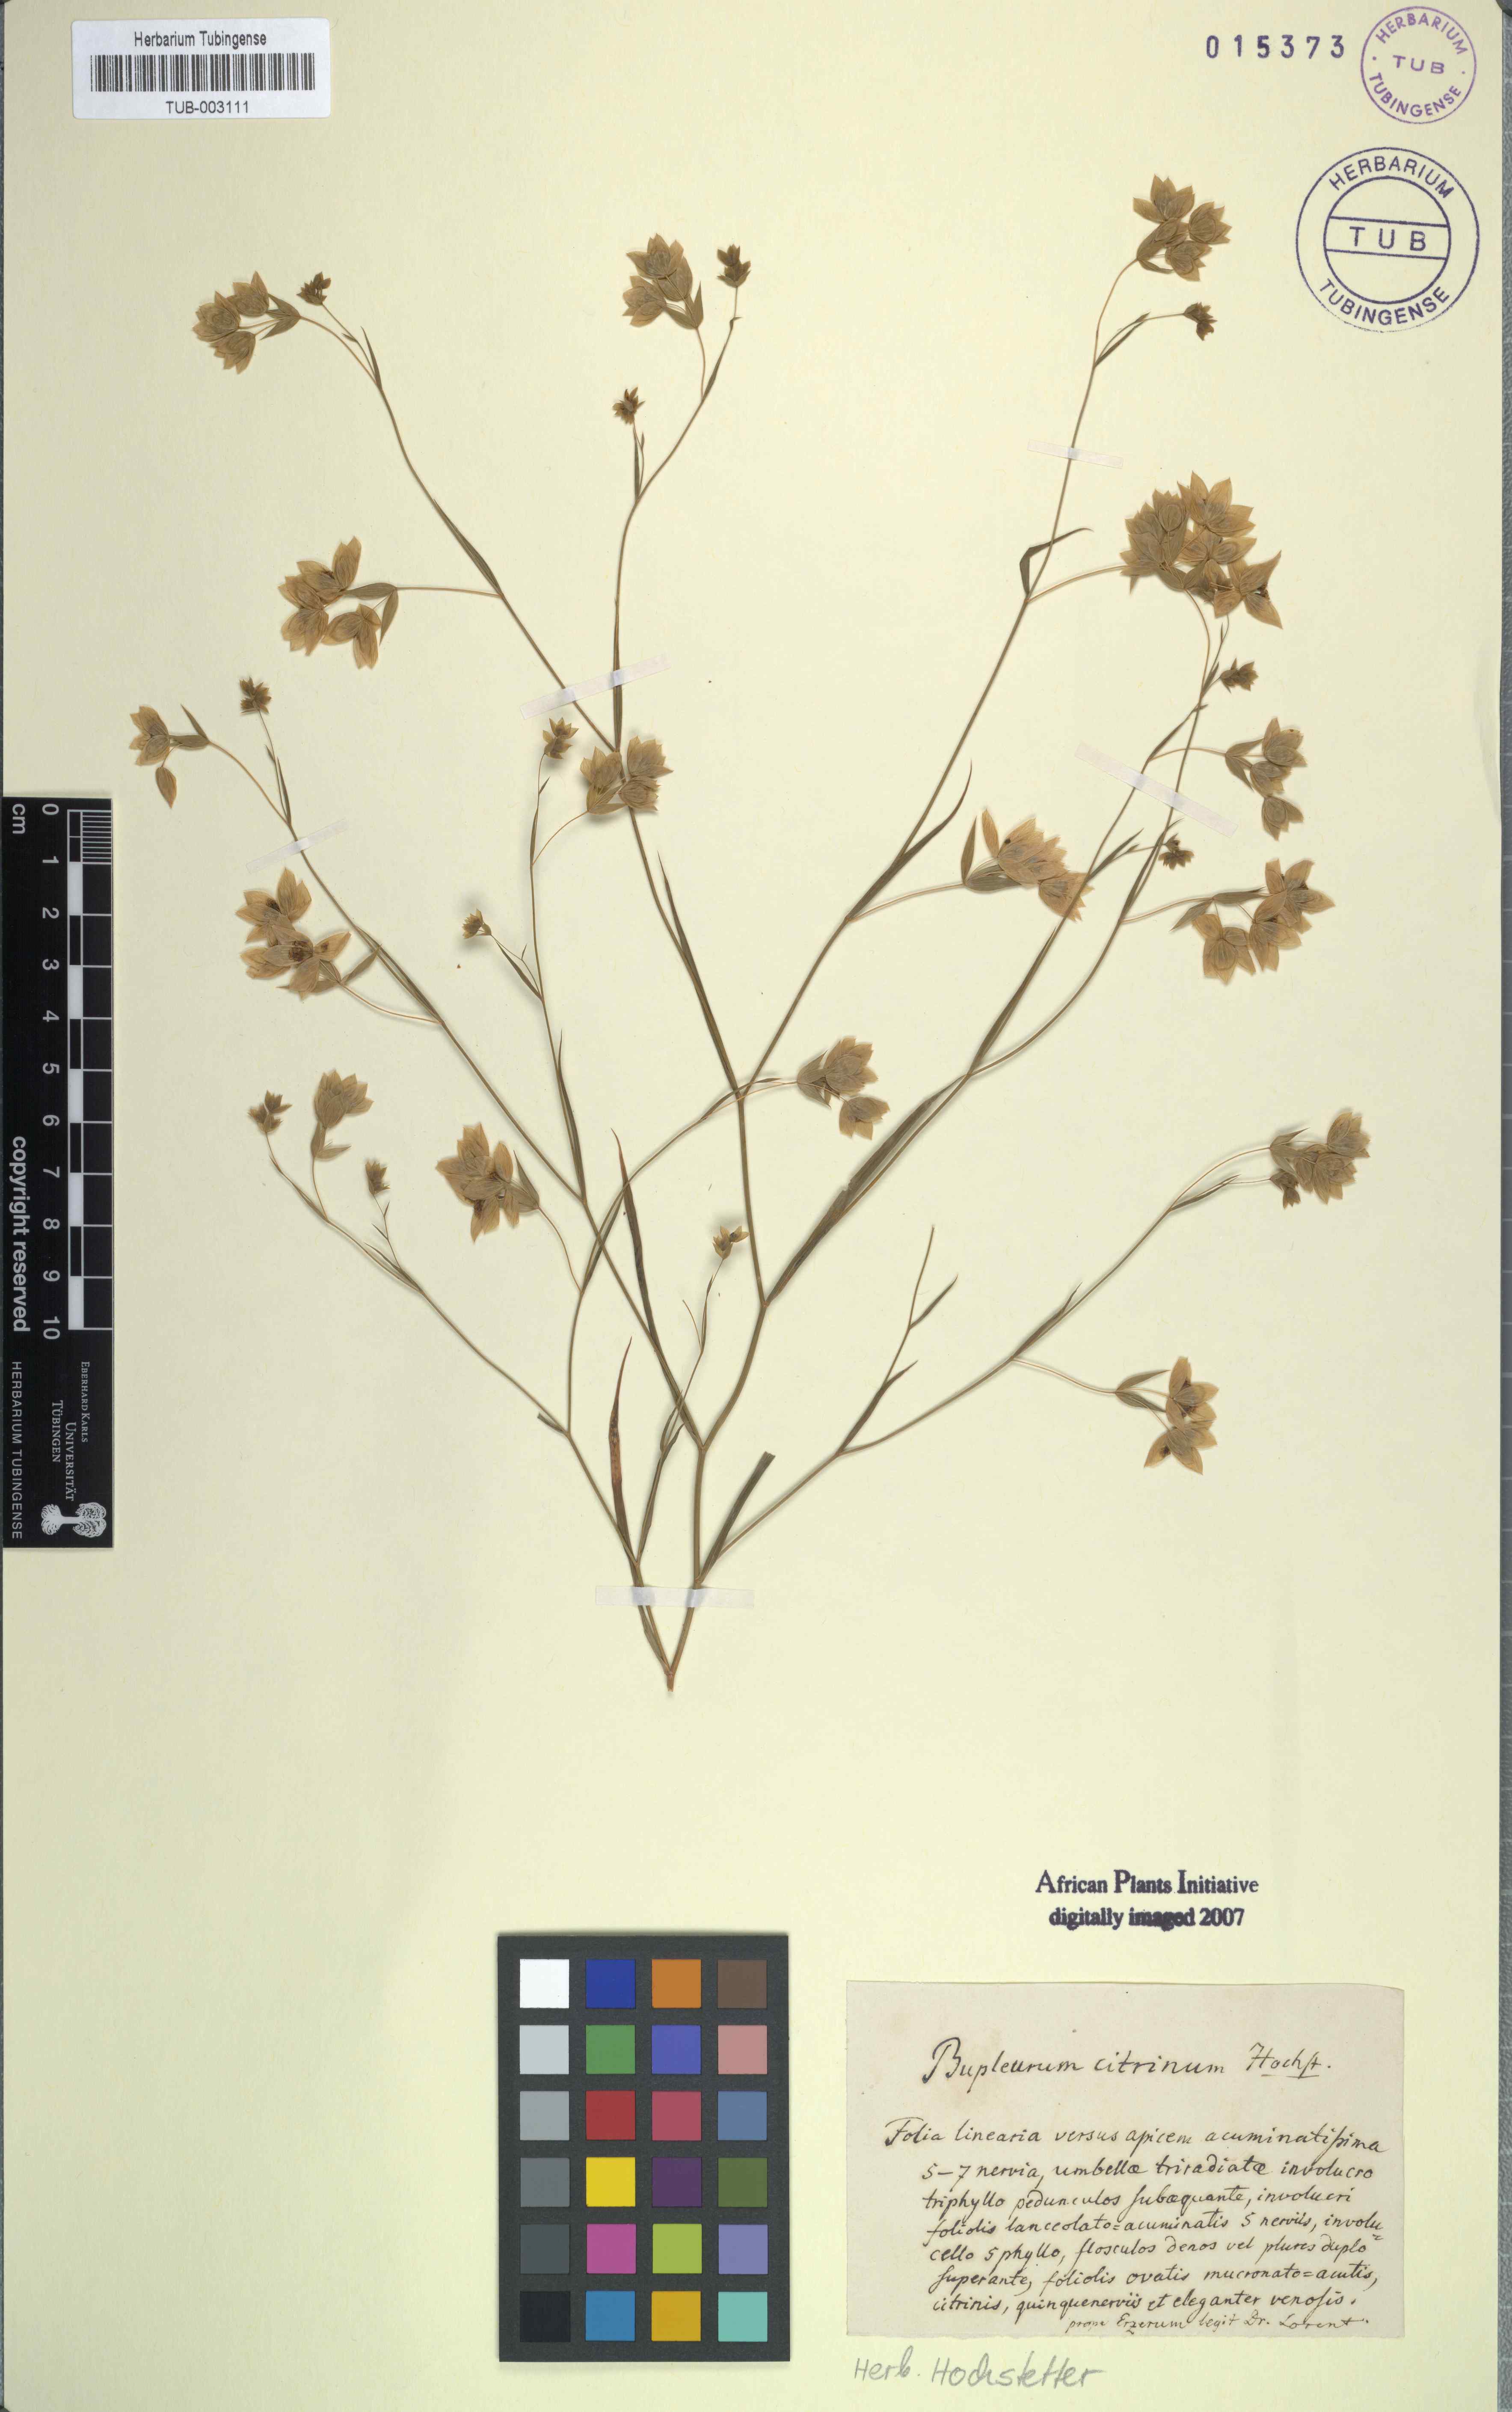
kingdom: Plantae
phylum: Tracheophyta
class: Magnoliopsida
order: Apiales
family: Apiaceae
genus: Bupleurum
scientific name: Bupleurum citrinum
